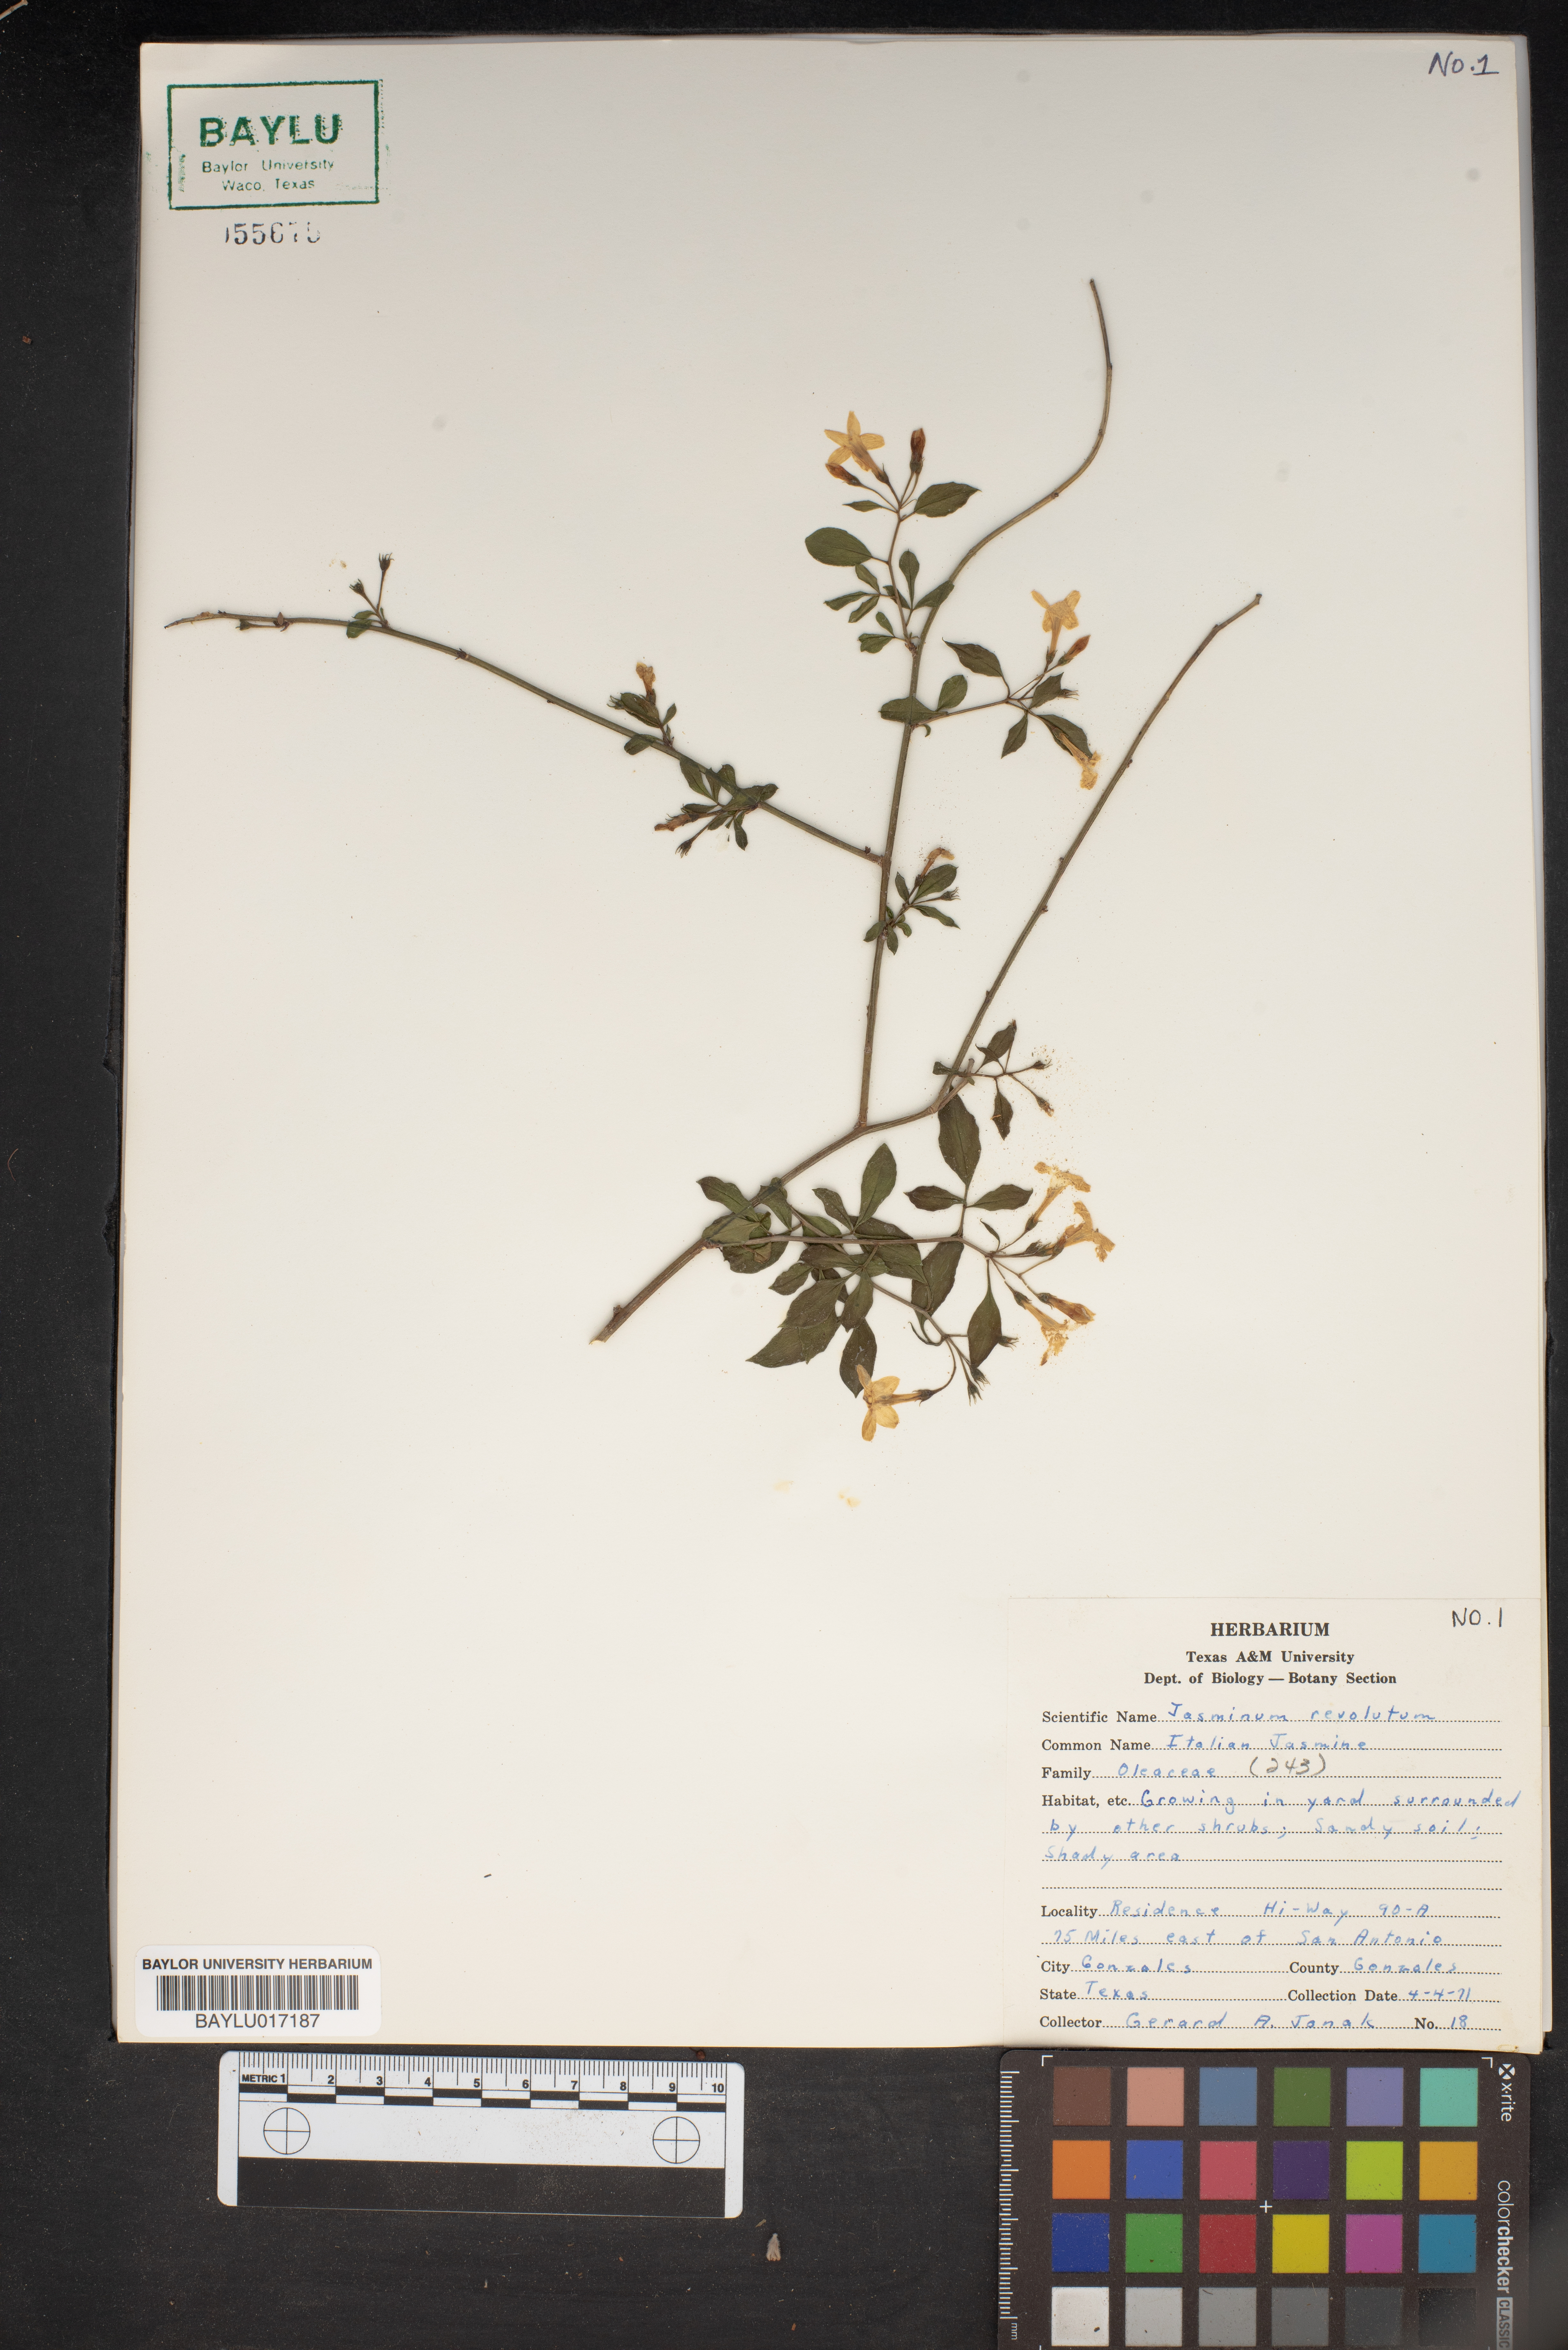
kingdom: Plantae
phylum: Tracheophyta
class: Magnoliopsida
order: Lamiales
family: Oleaceae
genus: Chrysojasminum
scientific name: Chrysojasminum humile
